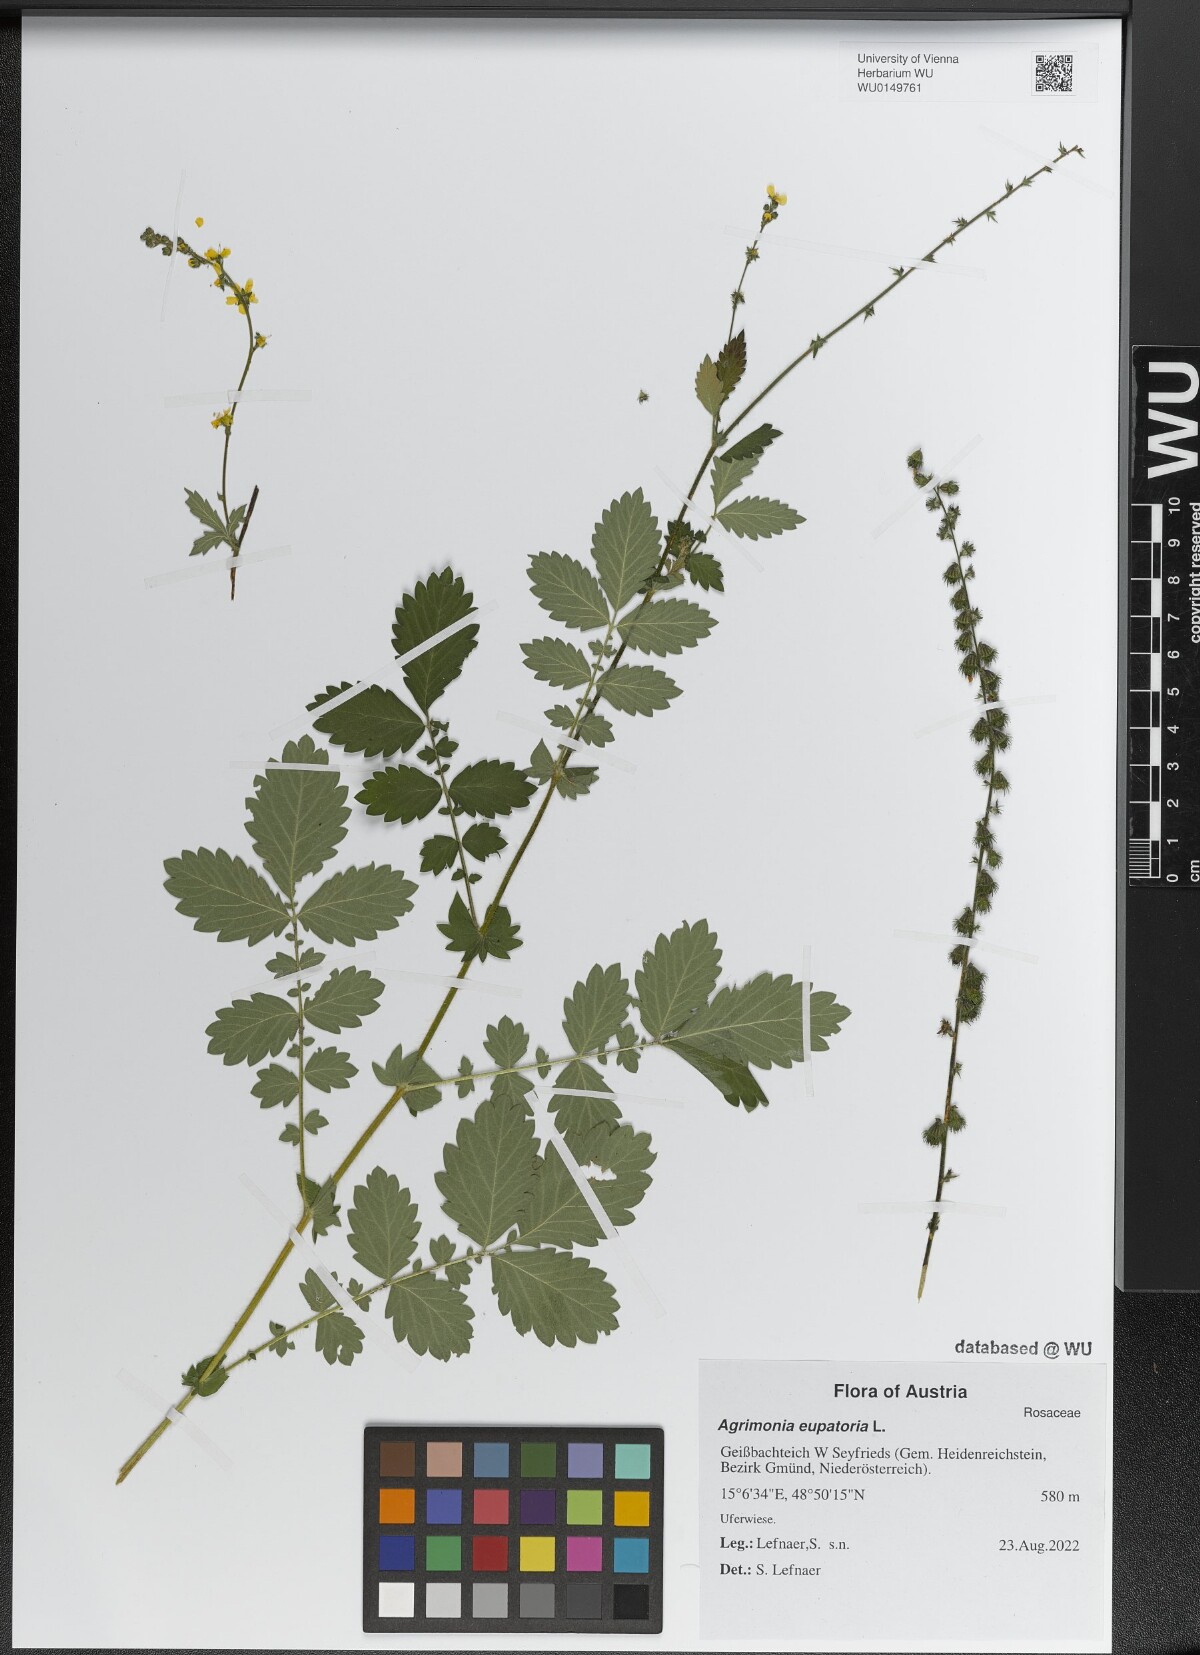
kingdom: Plantae
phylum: Tracheophyta
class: Magnoliopsida
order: Rosales
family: Rosaceae
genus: Agrimonia
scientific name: Agrimonia eupatoria
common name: Agrimony
